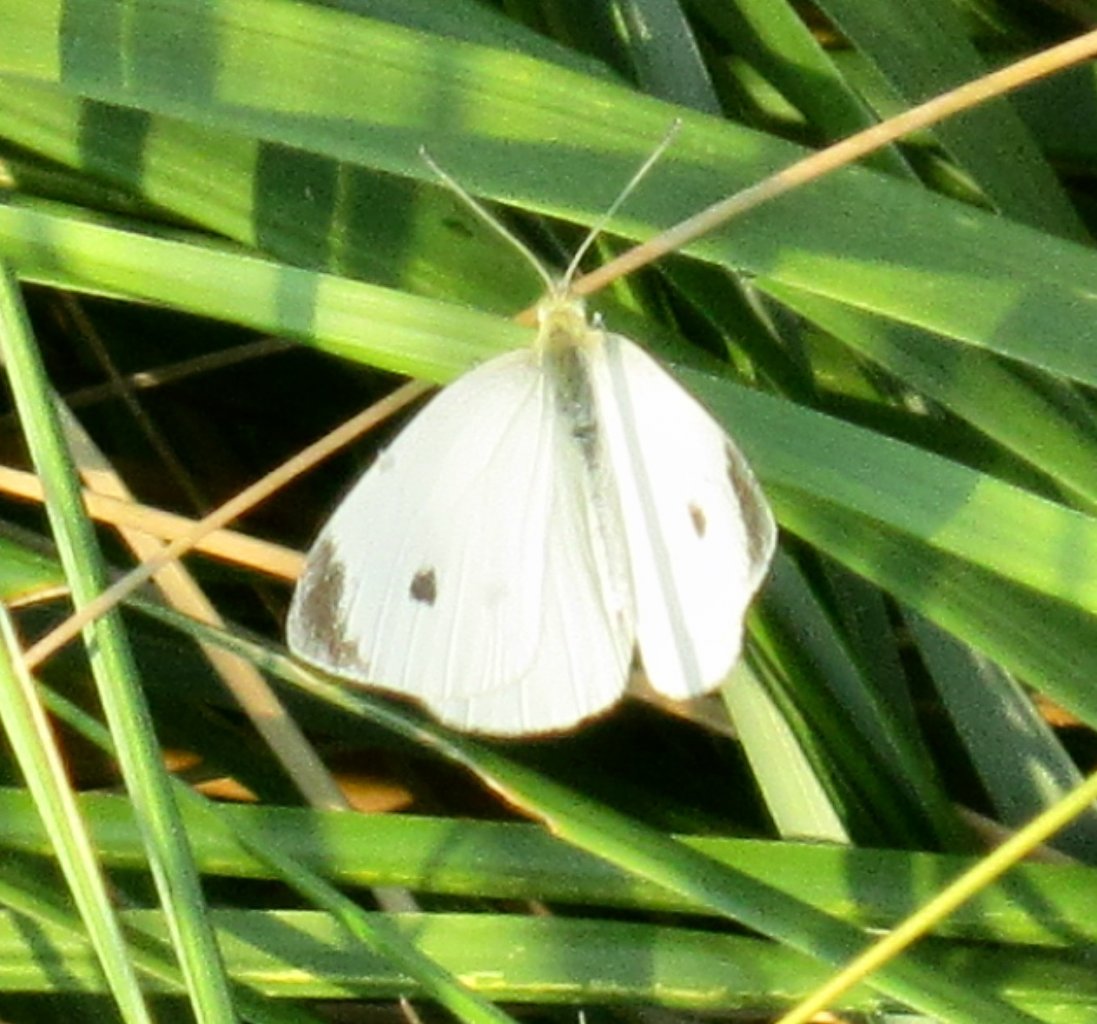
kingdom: Animalia
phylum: Arthropoda
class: Insecta
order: Lepidoptera
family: Pieridae
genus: Pieris
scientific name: Pieris rapae
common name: Cabbage White
